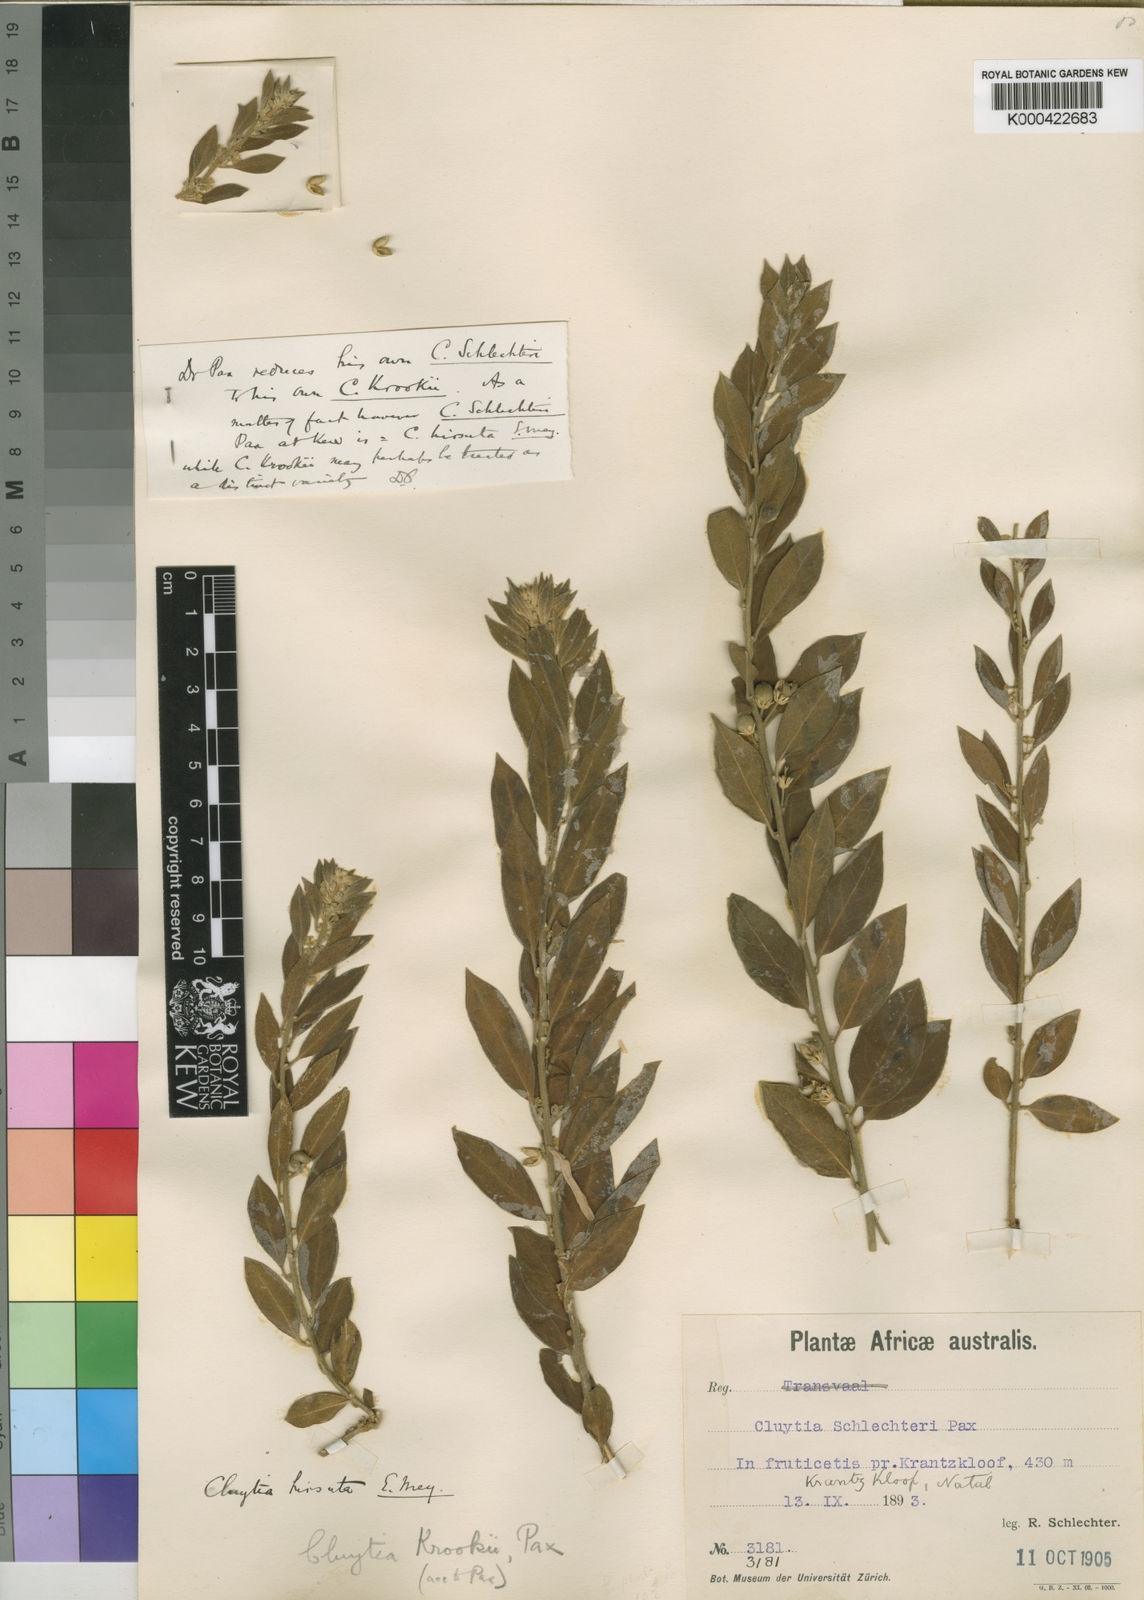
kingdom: Plantae
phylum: Tracheophyta
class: Magnoliopsida
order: Malpighiales
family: Peraceae
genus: Clutia
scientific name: Clutia
